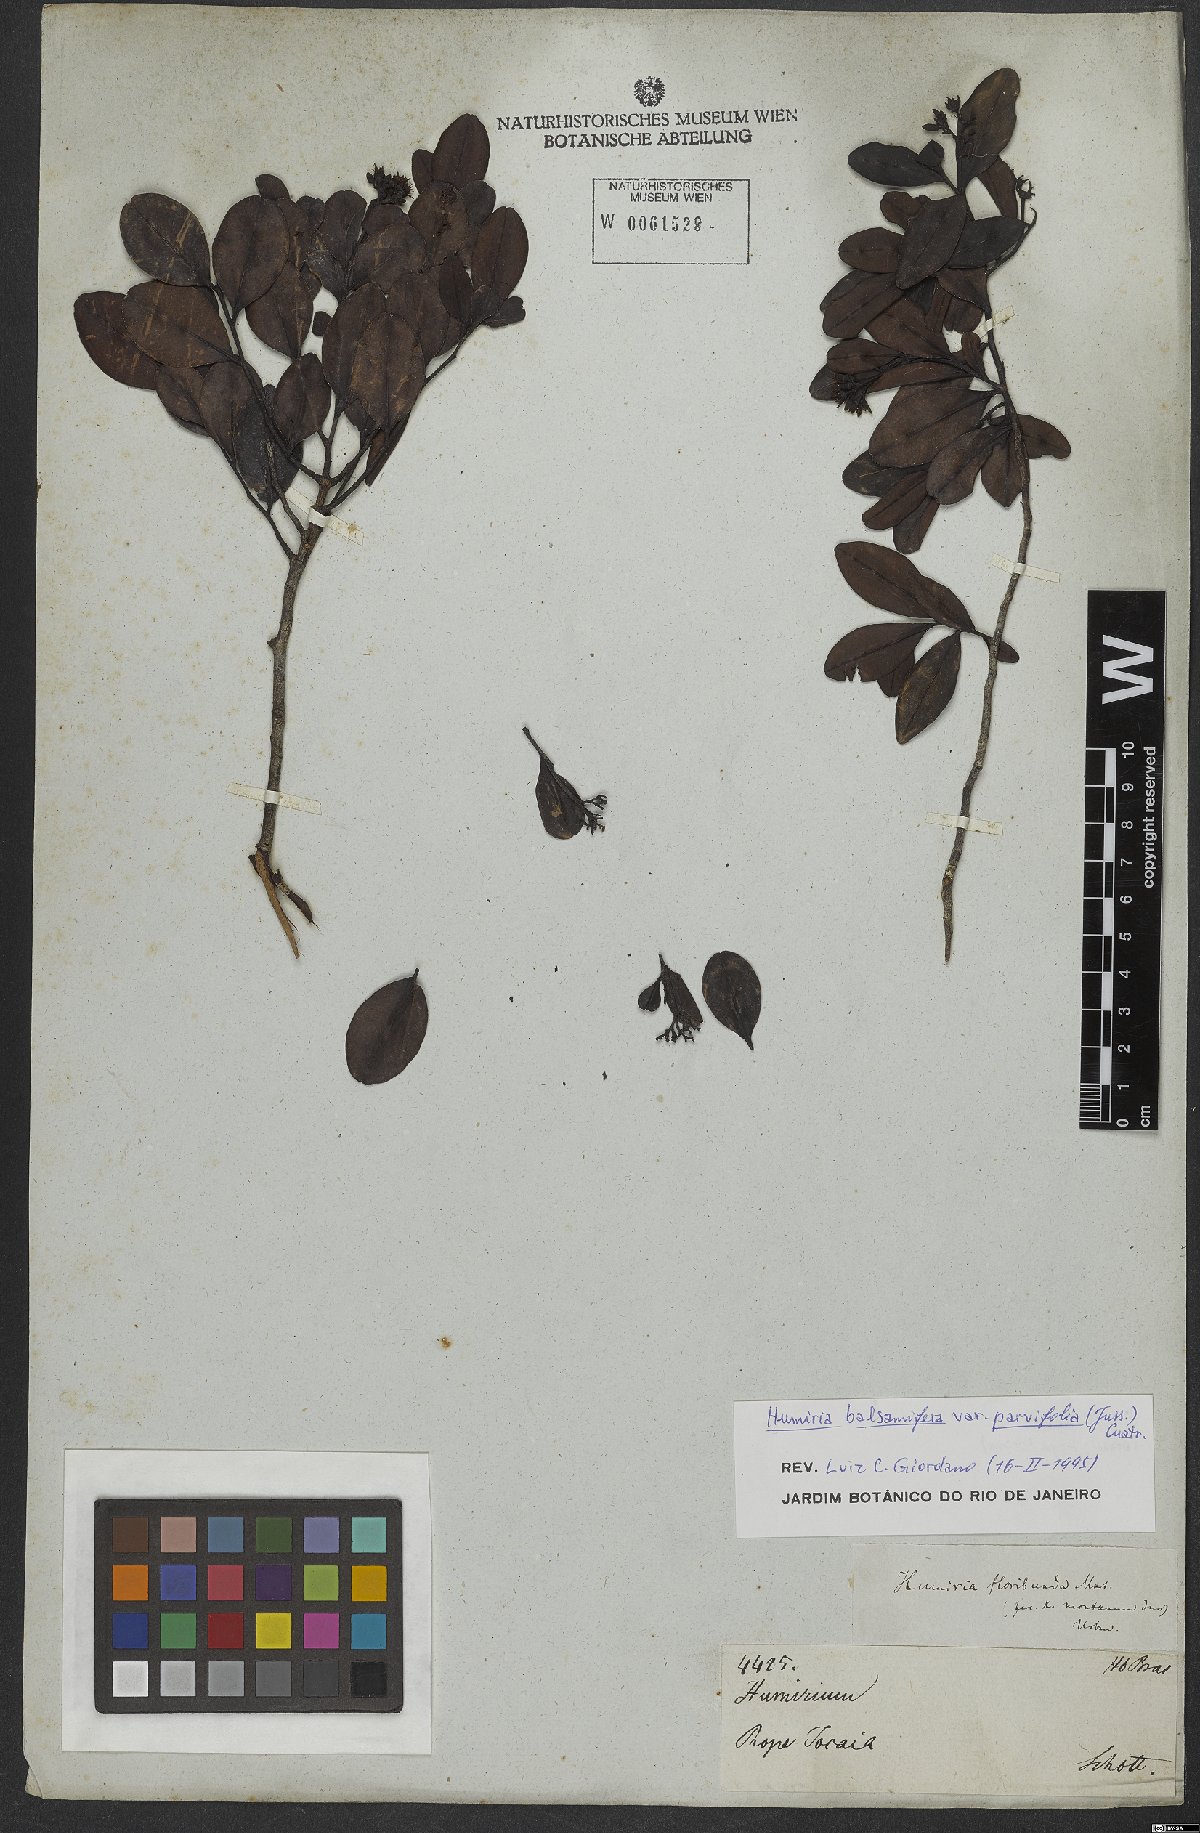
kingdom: Plantae
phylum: Tracheophyta
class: Magnoliopsida
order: Malpighiales
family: Humiriaceae
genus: Humiria
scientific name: Humiria parvifolia
